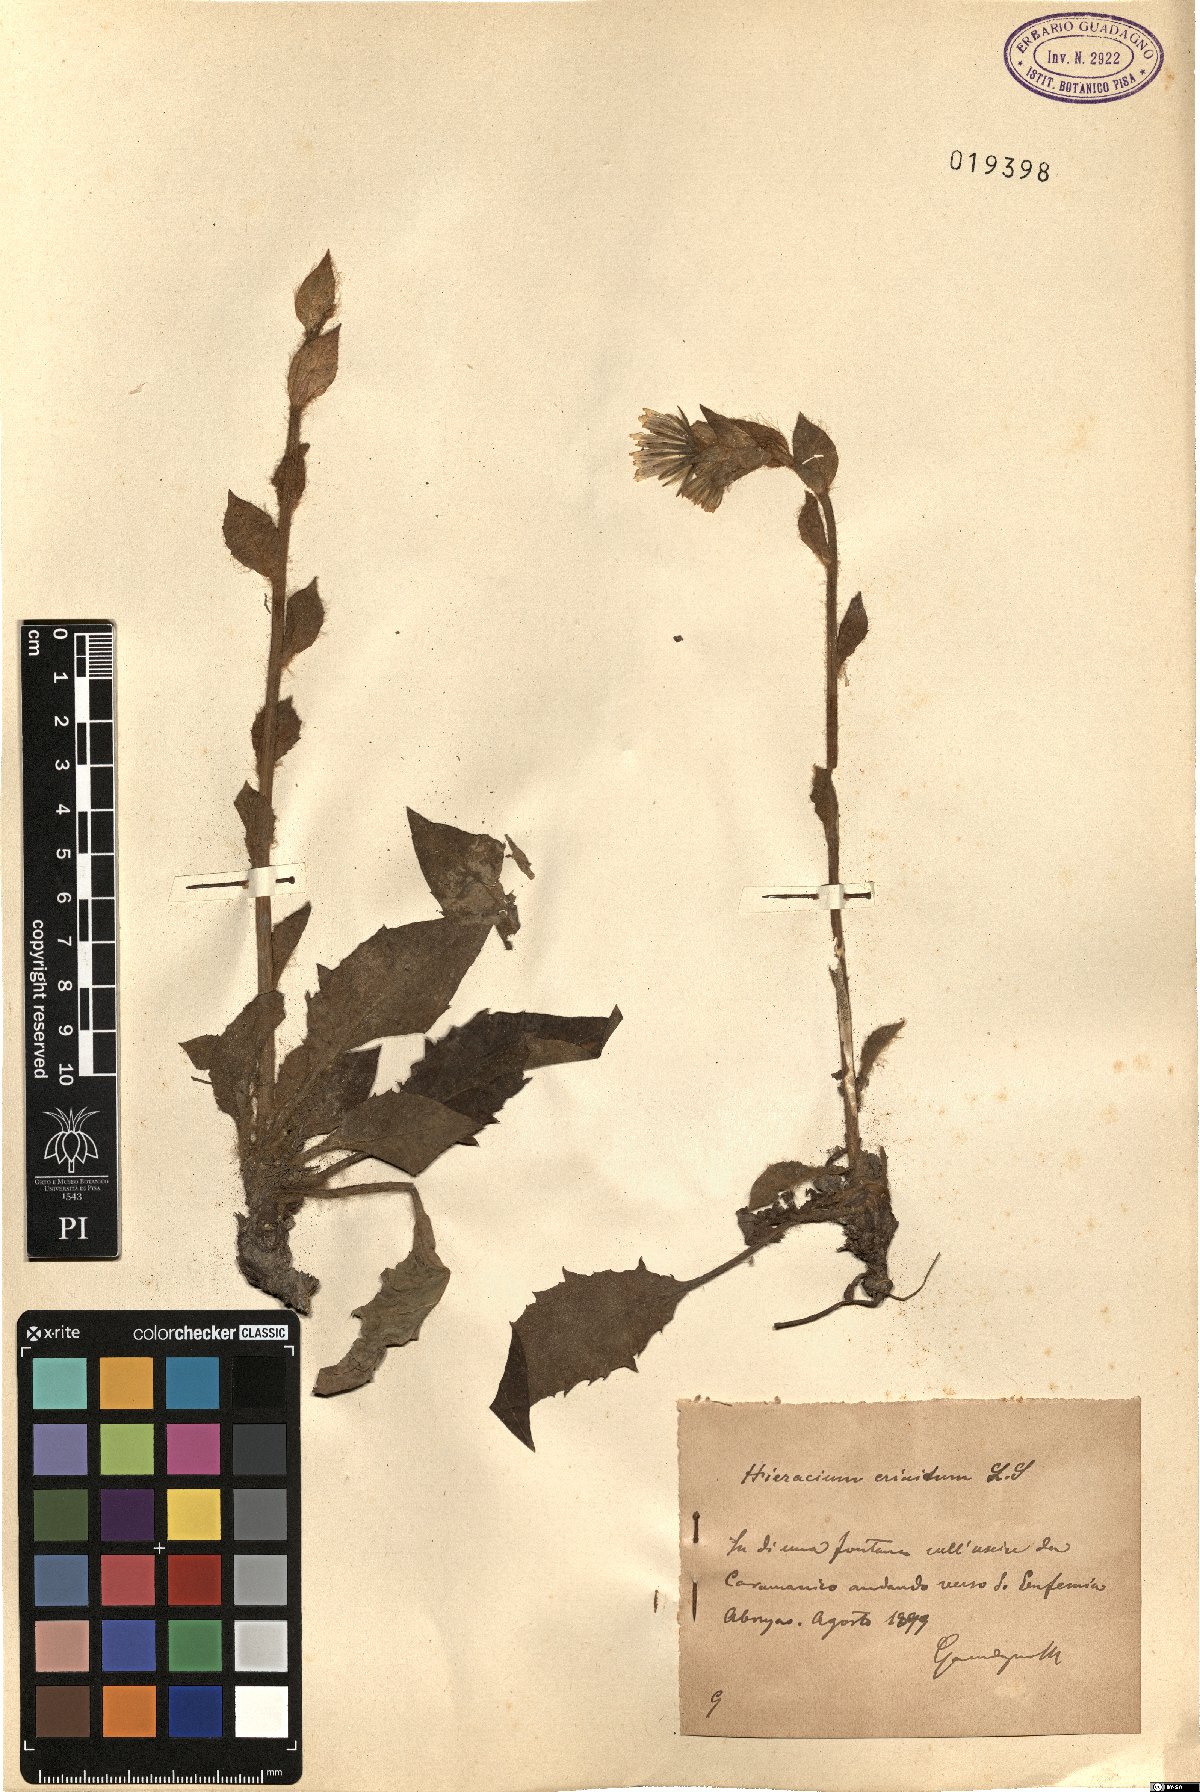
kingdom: Plantae
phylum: Tracheophyta
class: Magnoliopsida
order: Asterales
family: Asteraceae
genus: Hieracium
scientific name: Hieracium racemosum
